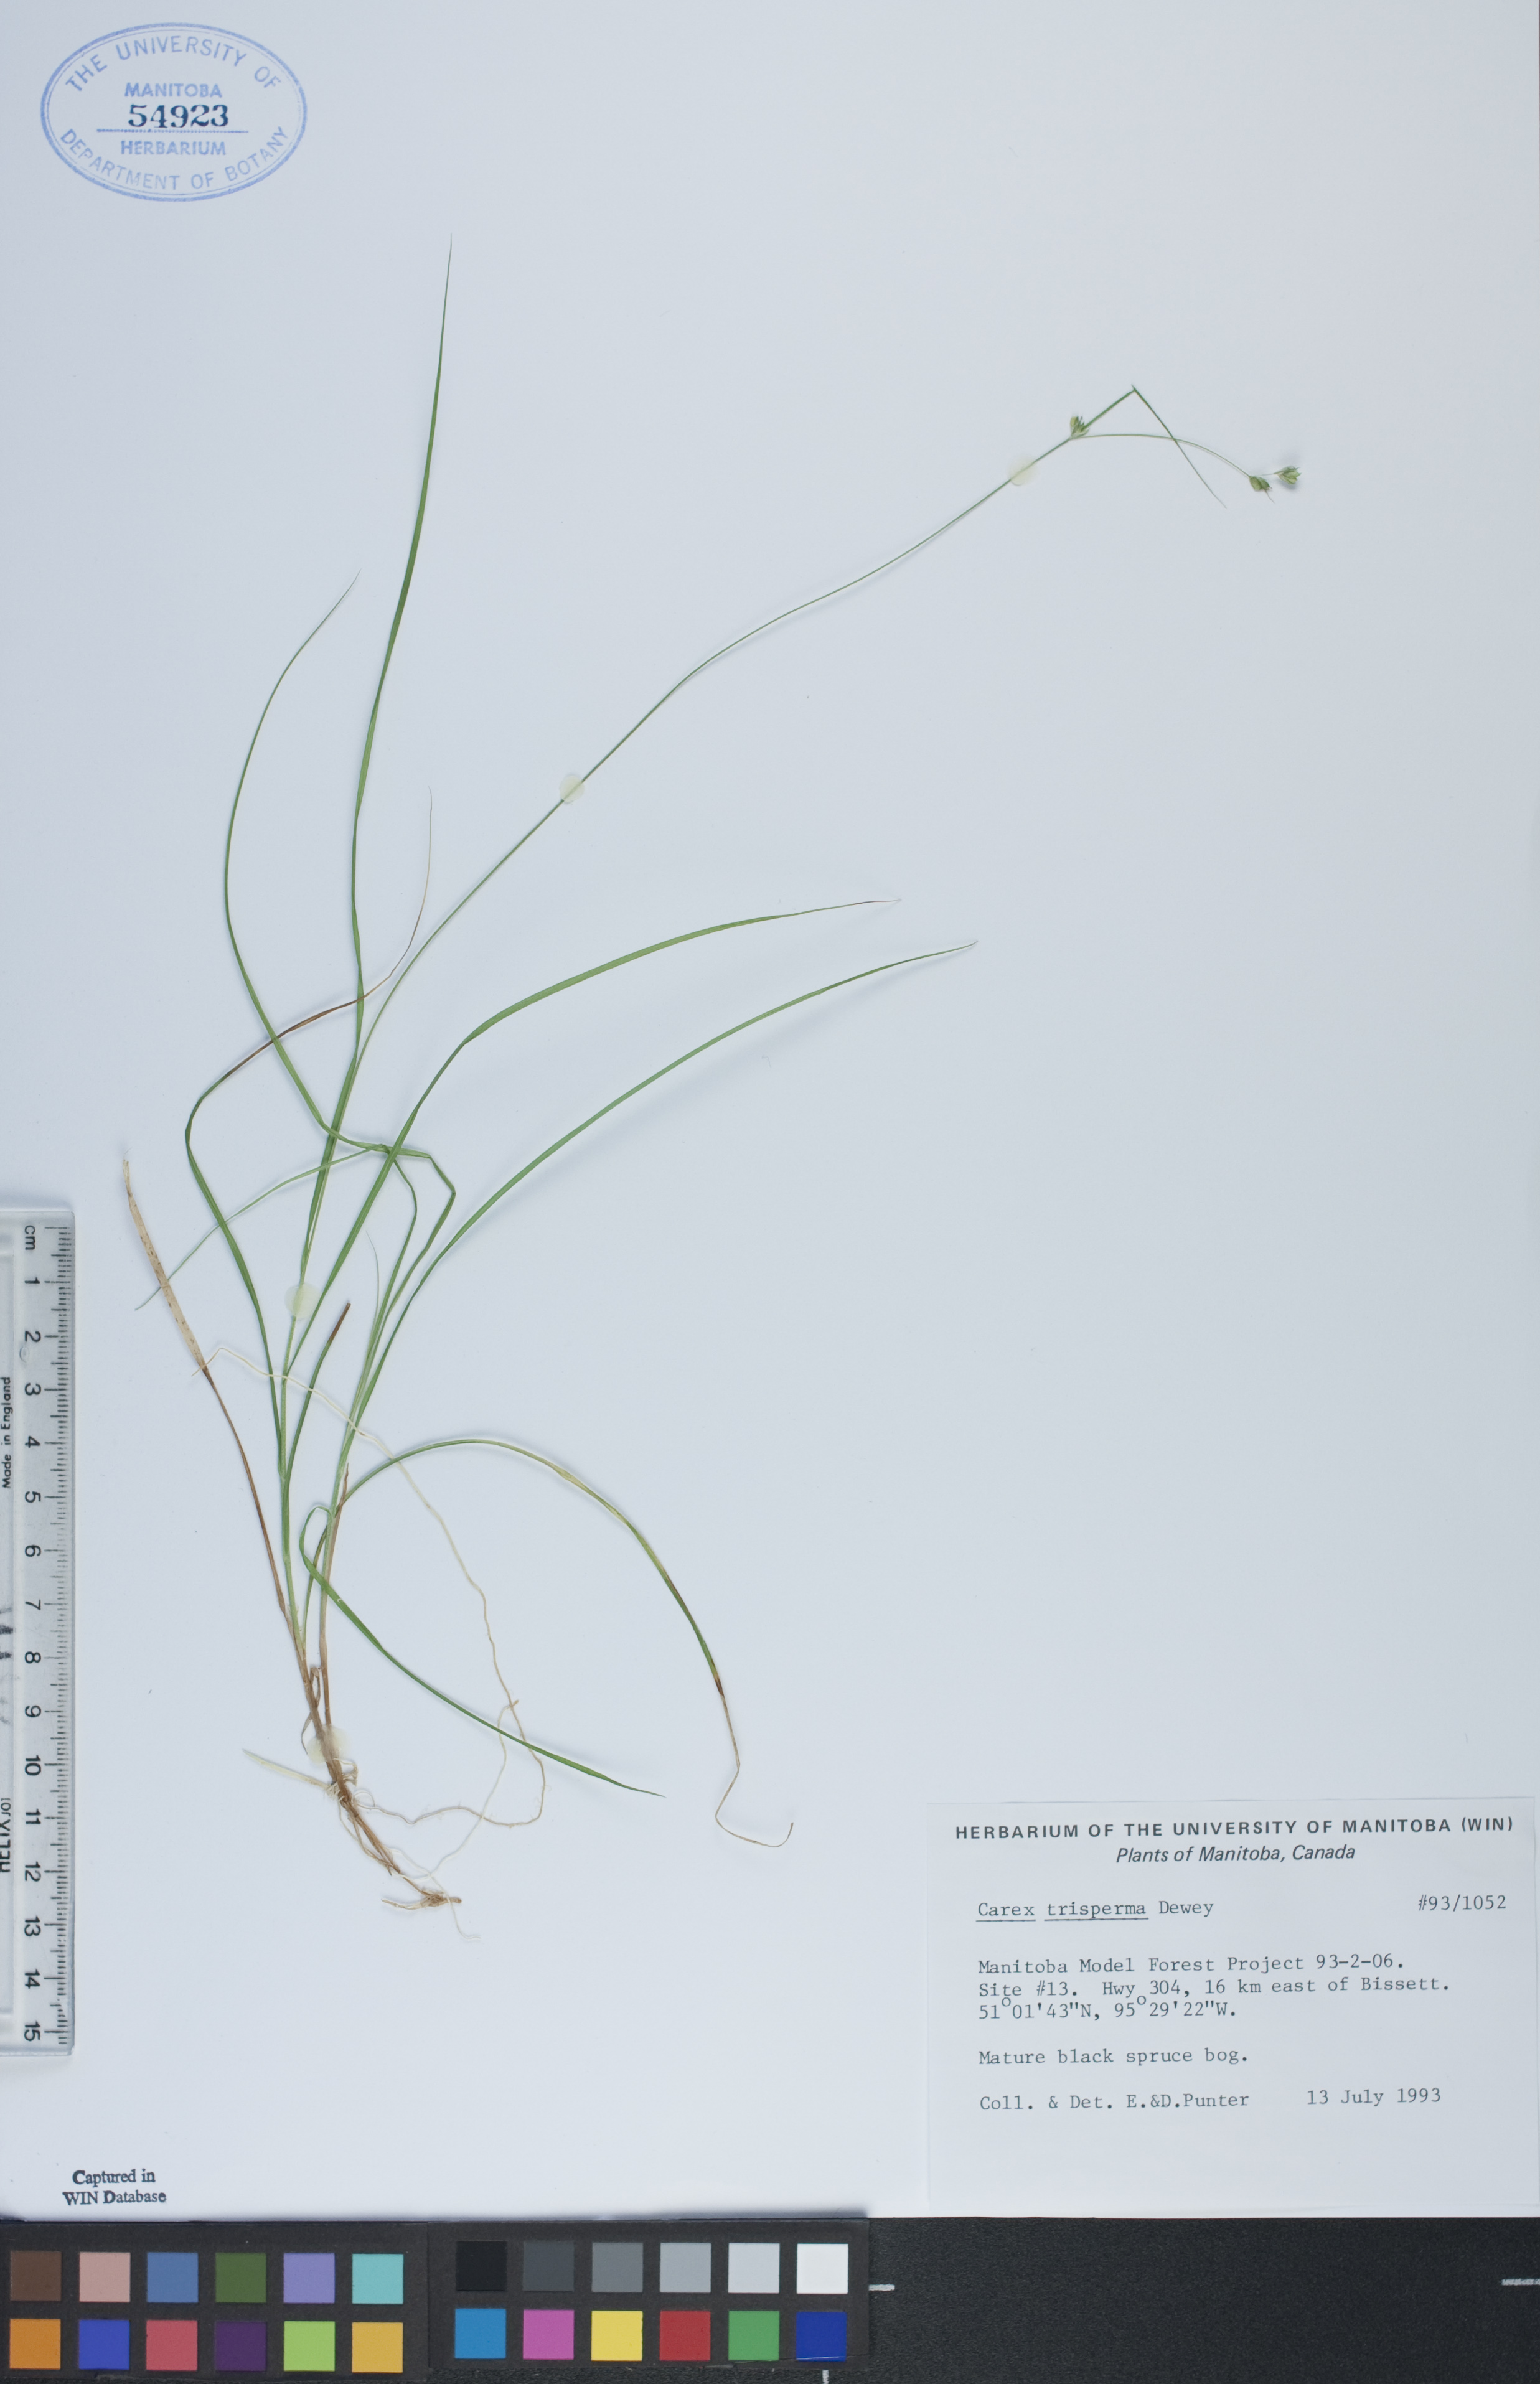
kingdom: Plantae
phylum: Tracheophyta
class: Liliopsida
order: Poales
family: Cyperaceae
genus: Carex
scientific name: Carex trisperma
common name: Three-seeded sedge
